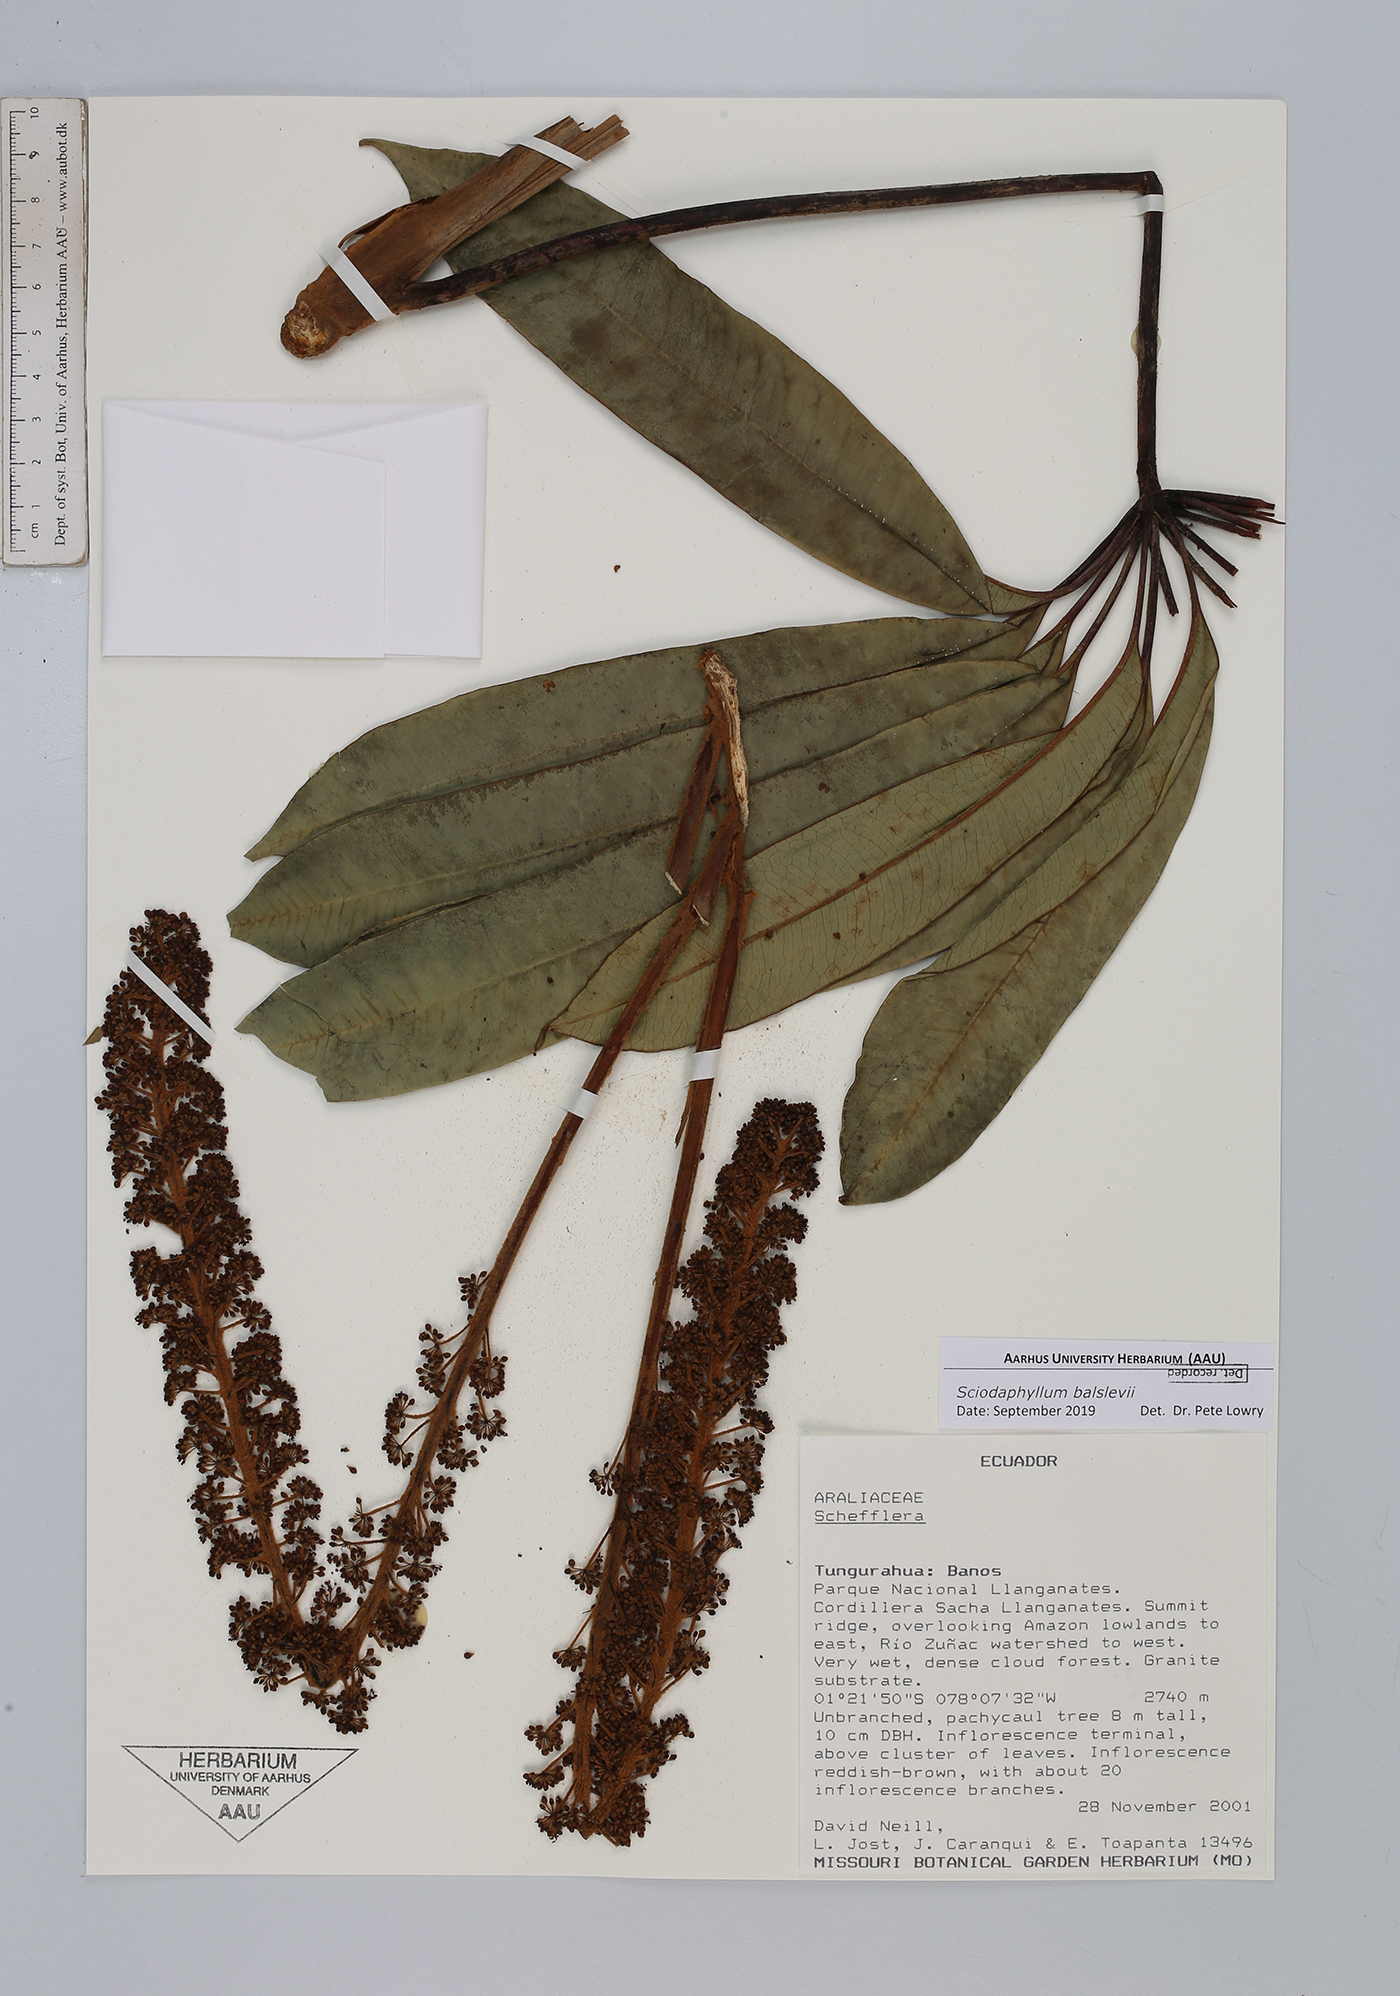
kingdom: Plantae
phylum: Tracheophyta
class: Magnoliopsida
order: Apiales
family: Araliaceae
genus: Sciodaphyllum
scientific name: Sciodaphyllum
